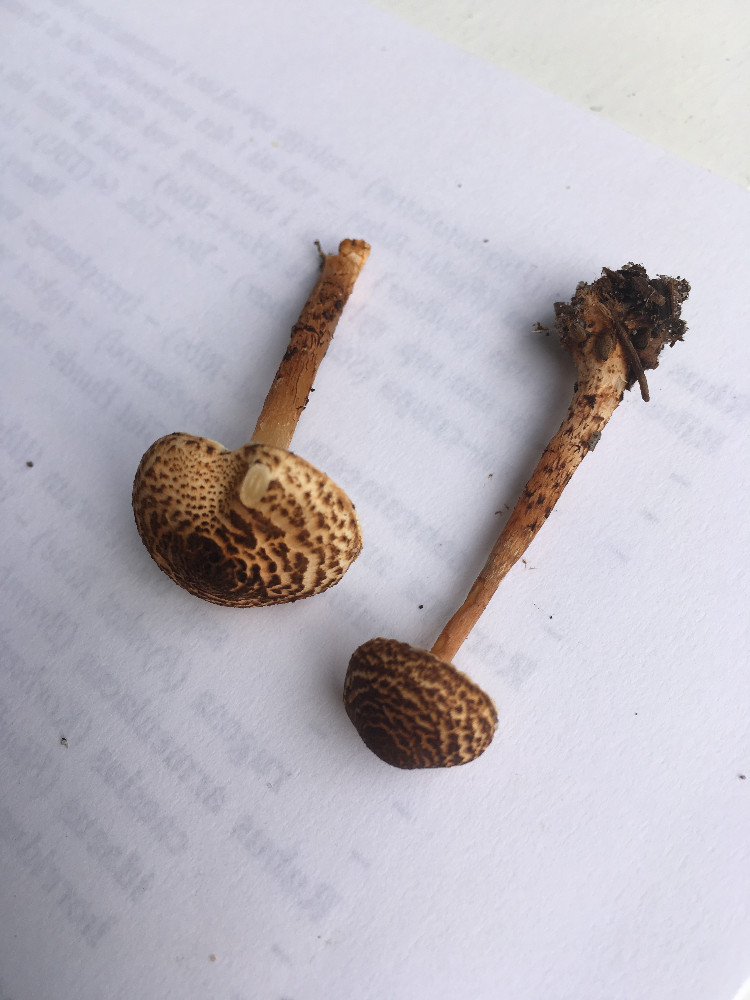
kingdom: Fungi
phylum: Basidiomycota
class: Agaricomycetes
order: Agaricales
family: Agaricaceae
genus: Lepiota
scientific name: Lepiota castanea
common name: kastaniebrun parasolhat
